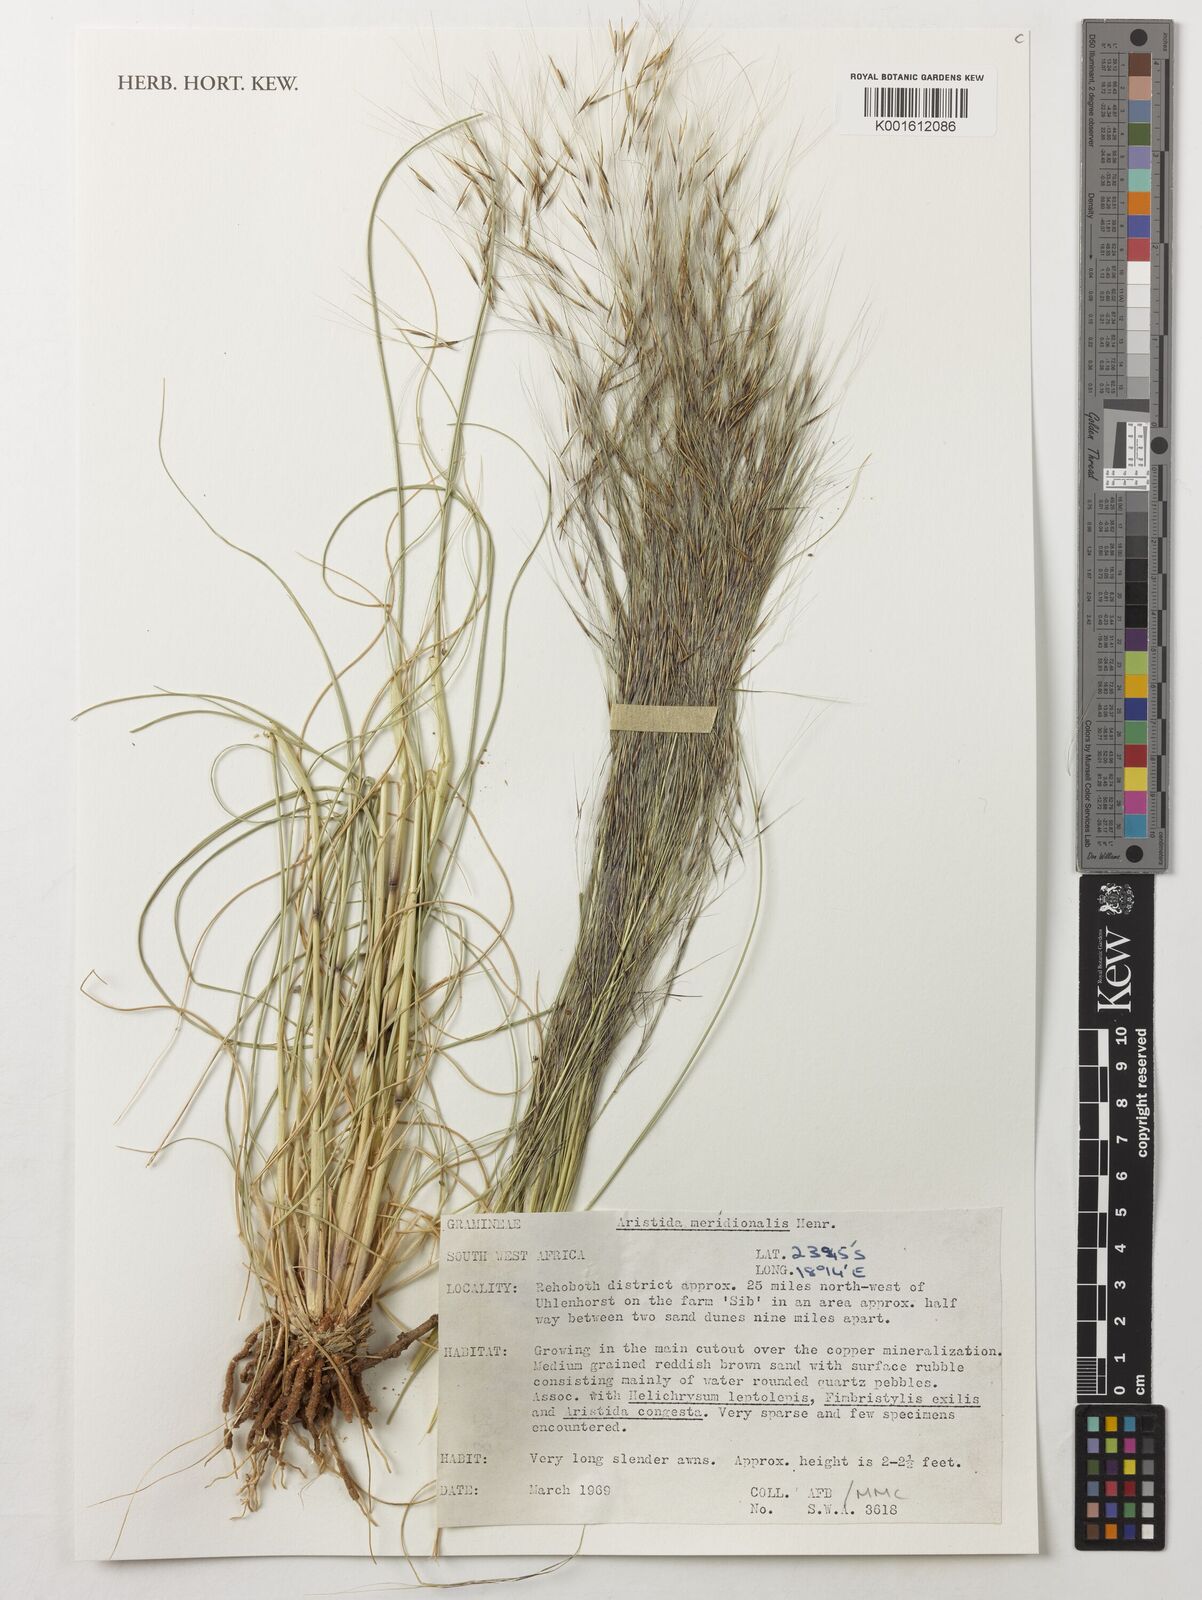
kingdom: Plantae
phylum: Tracheophyta
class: Liliopsida
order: Poales
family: Poaceae
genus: Aristida
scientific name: Aristida meridionalis
